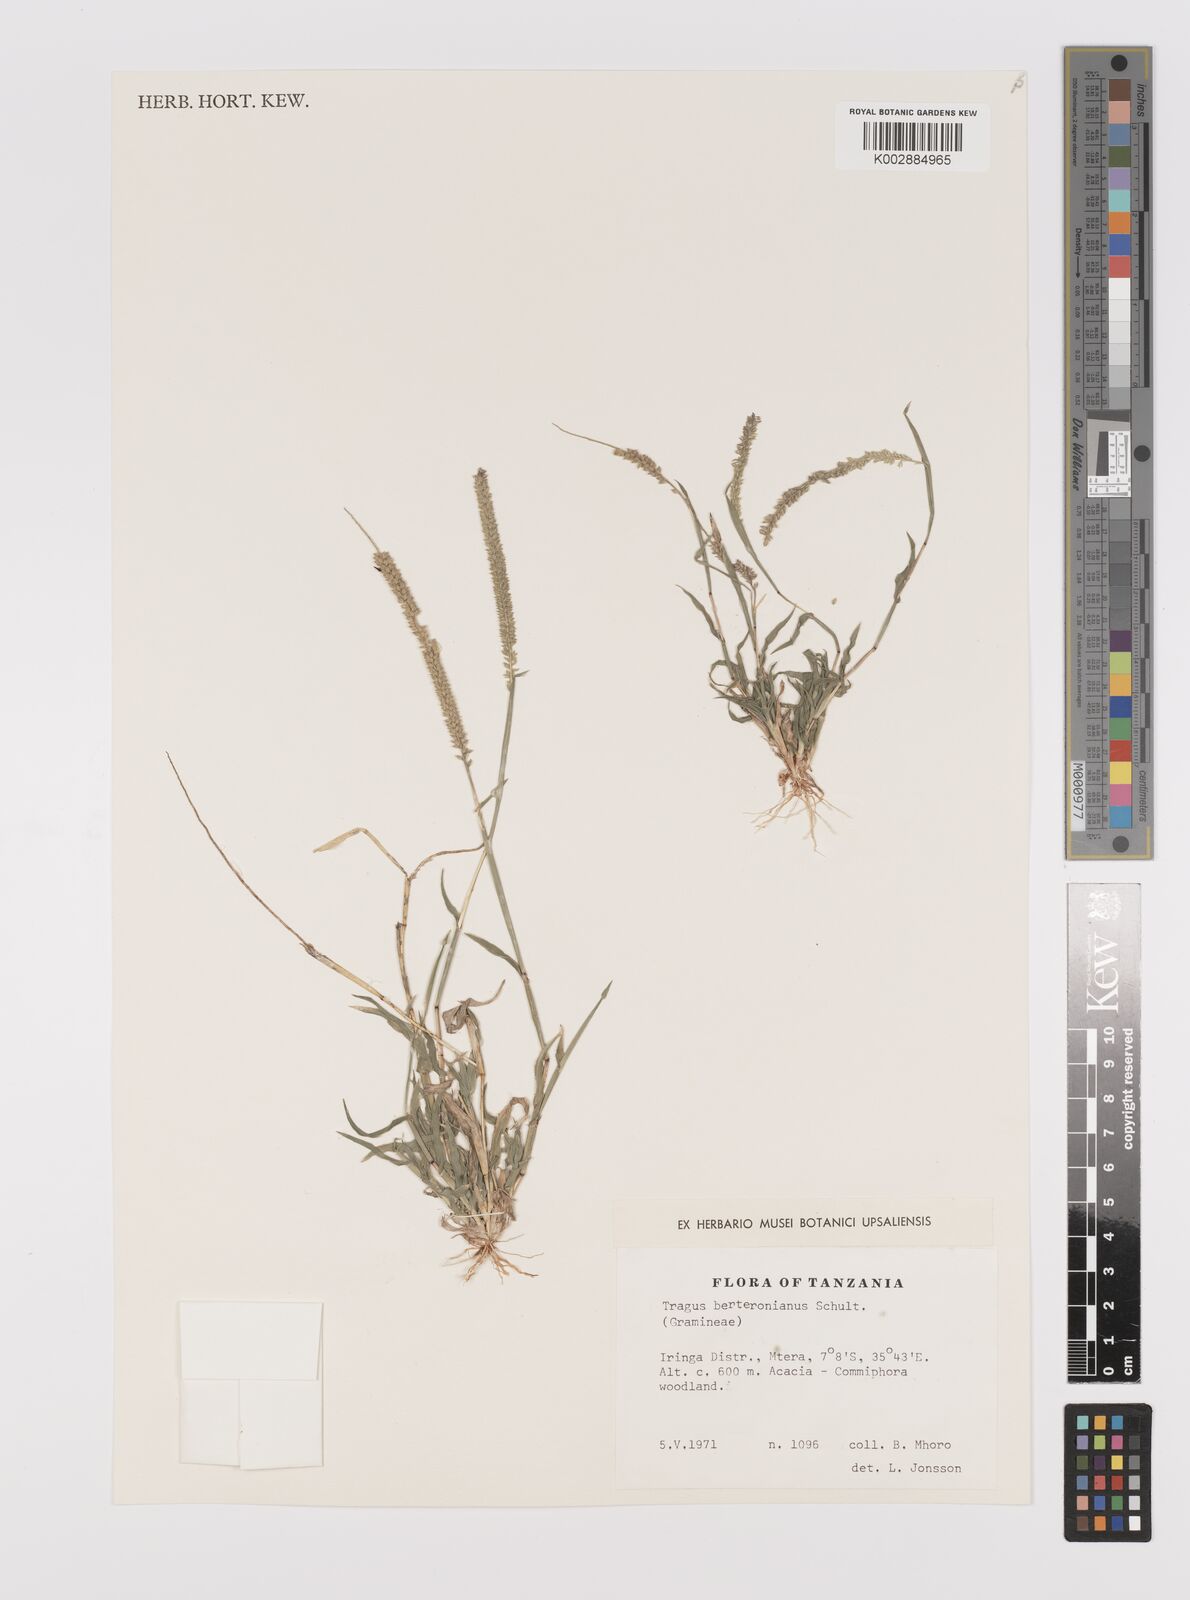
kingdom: Plantae
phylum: Tracheophyta
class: Liliopsida
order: Poales
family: Poaceae
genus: Tragus
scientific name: Tragus berteronianus
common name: African bur-grass
